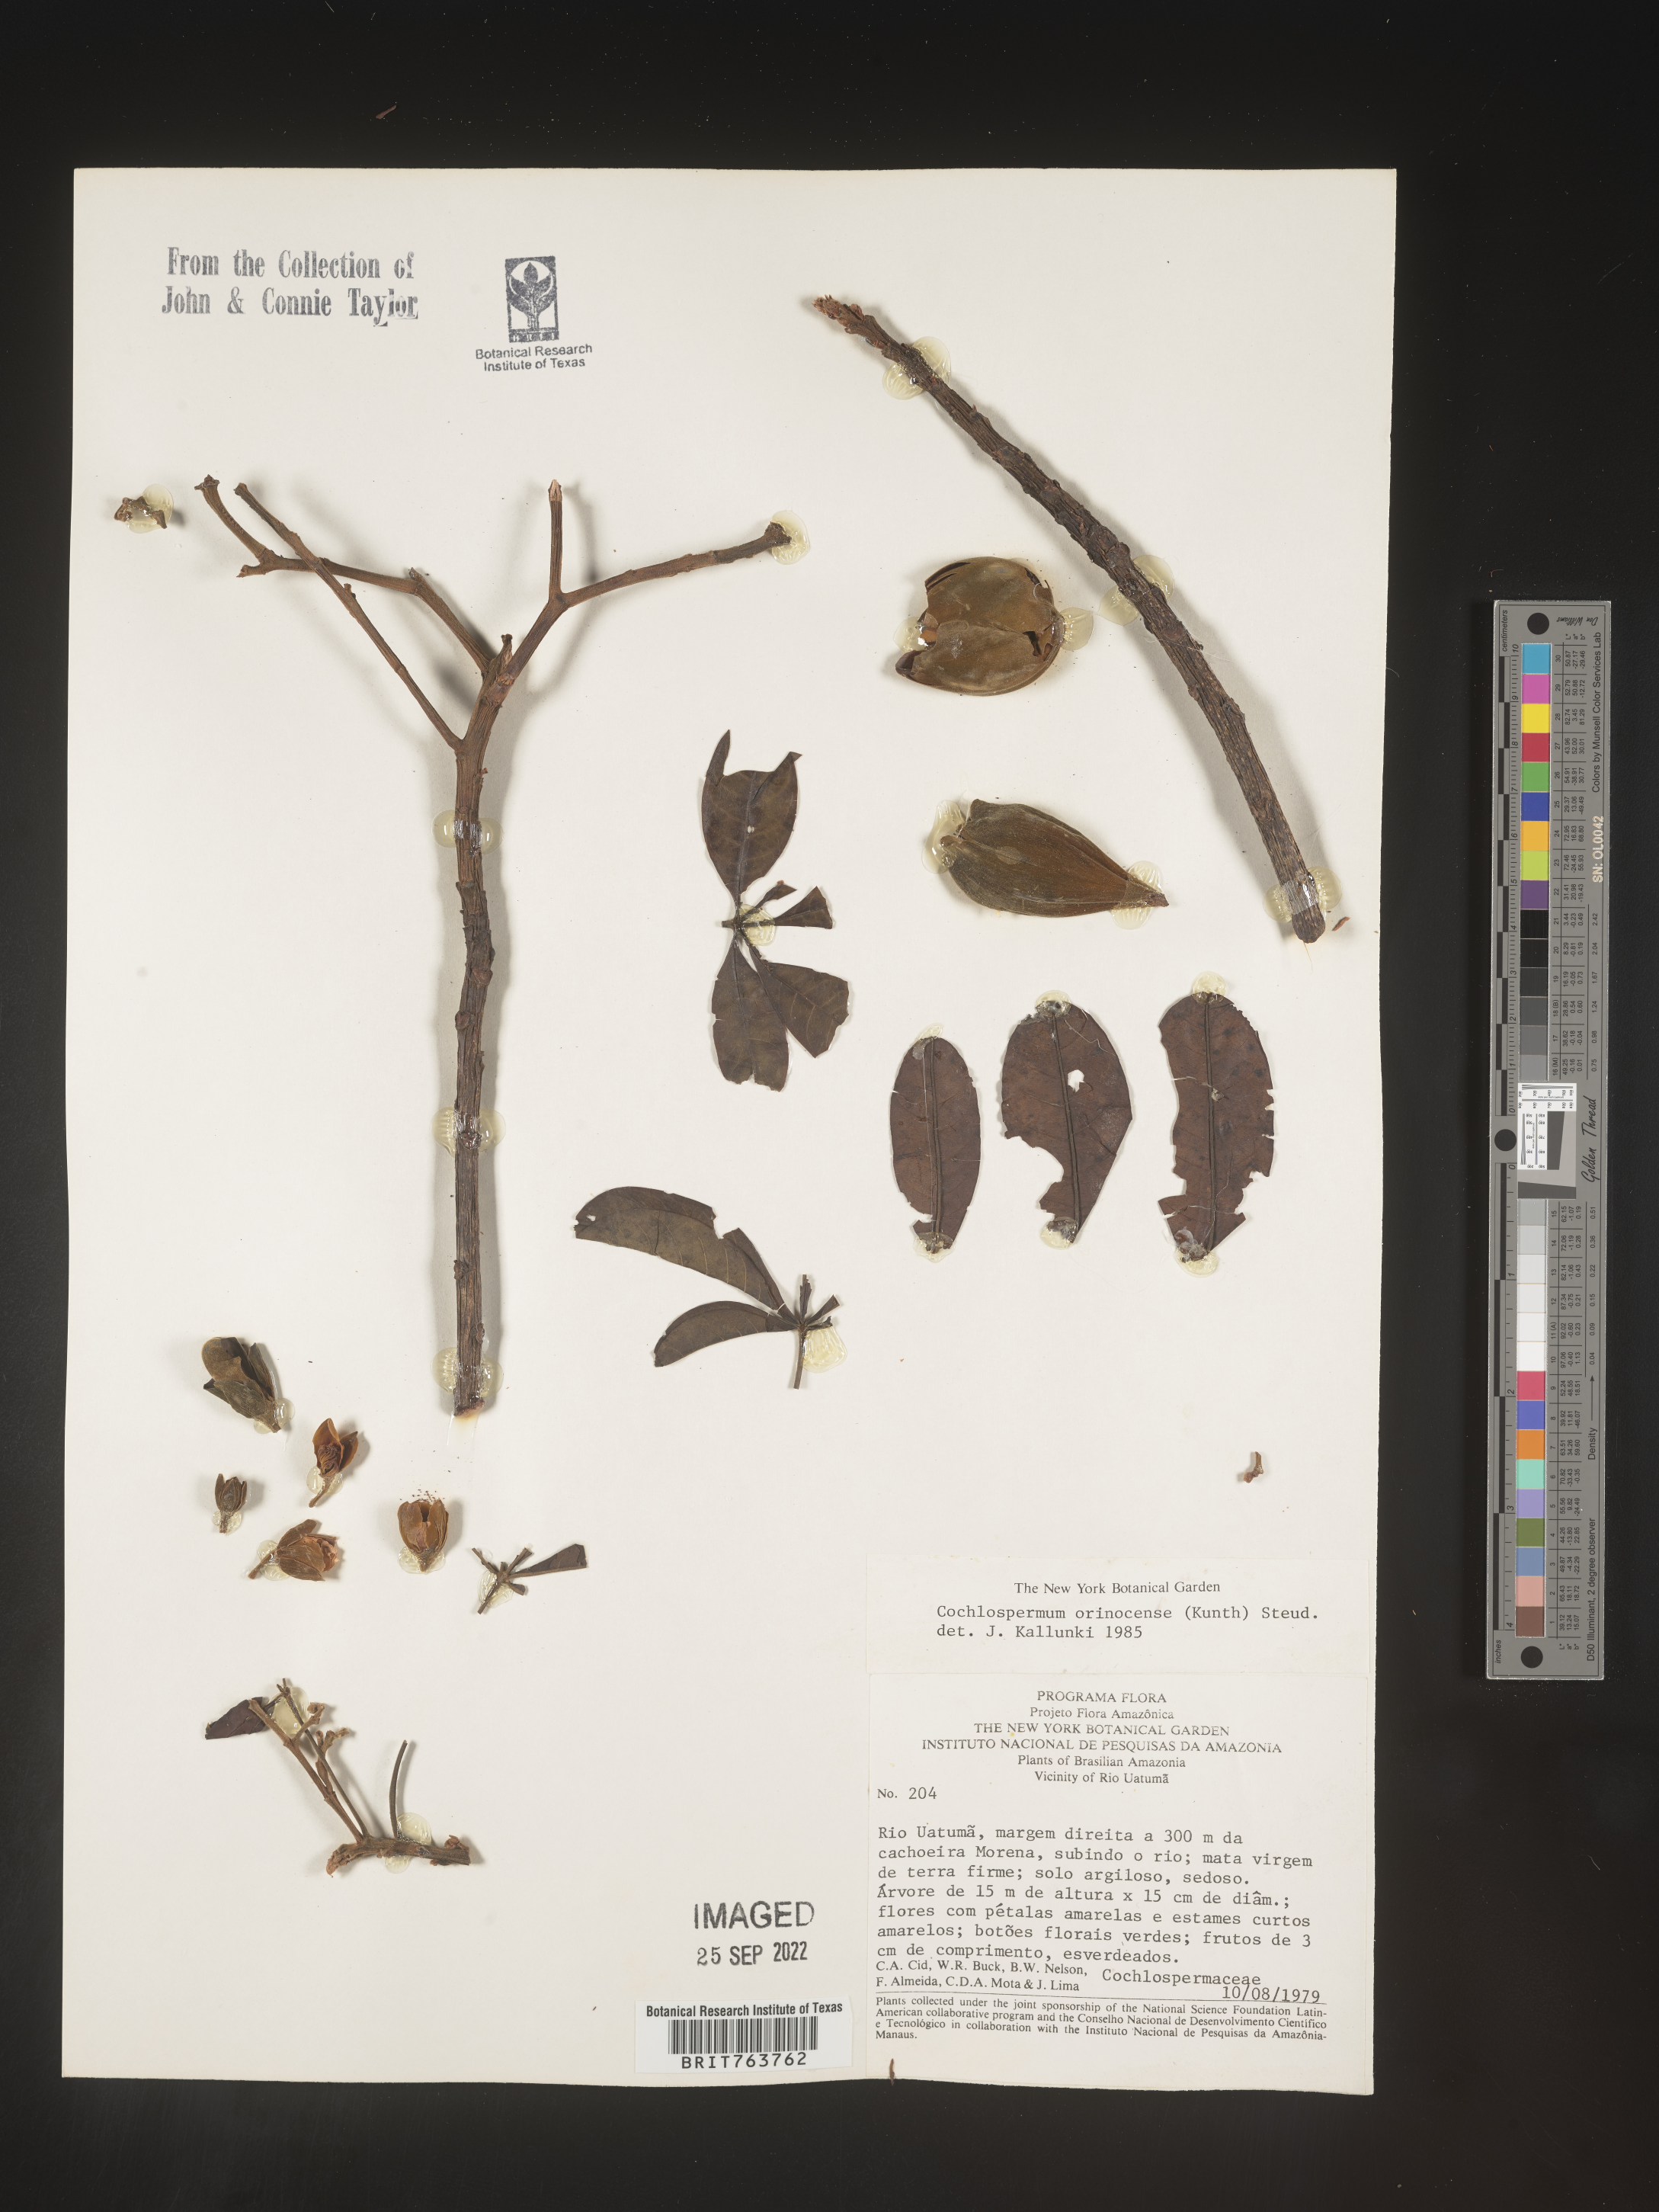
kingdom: Plantae
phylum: Tracheophyta
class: Magnoliopsida
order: Malvales
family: Cochlospermaceae
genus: Cochlospermum
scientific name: Cochlospermum
